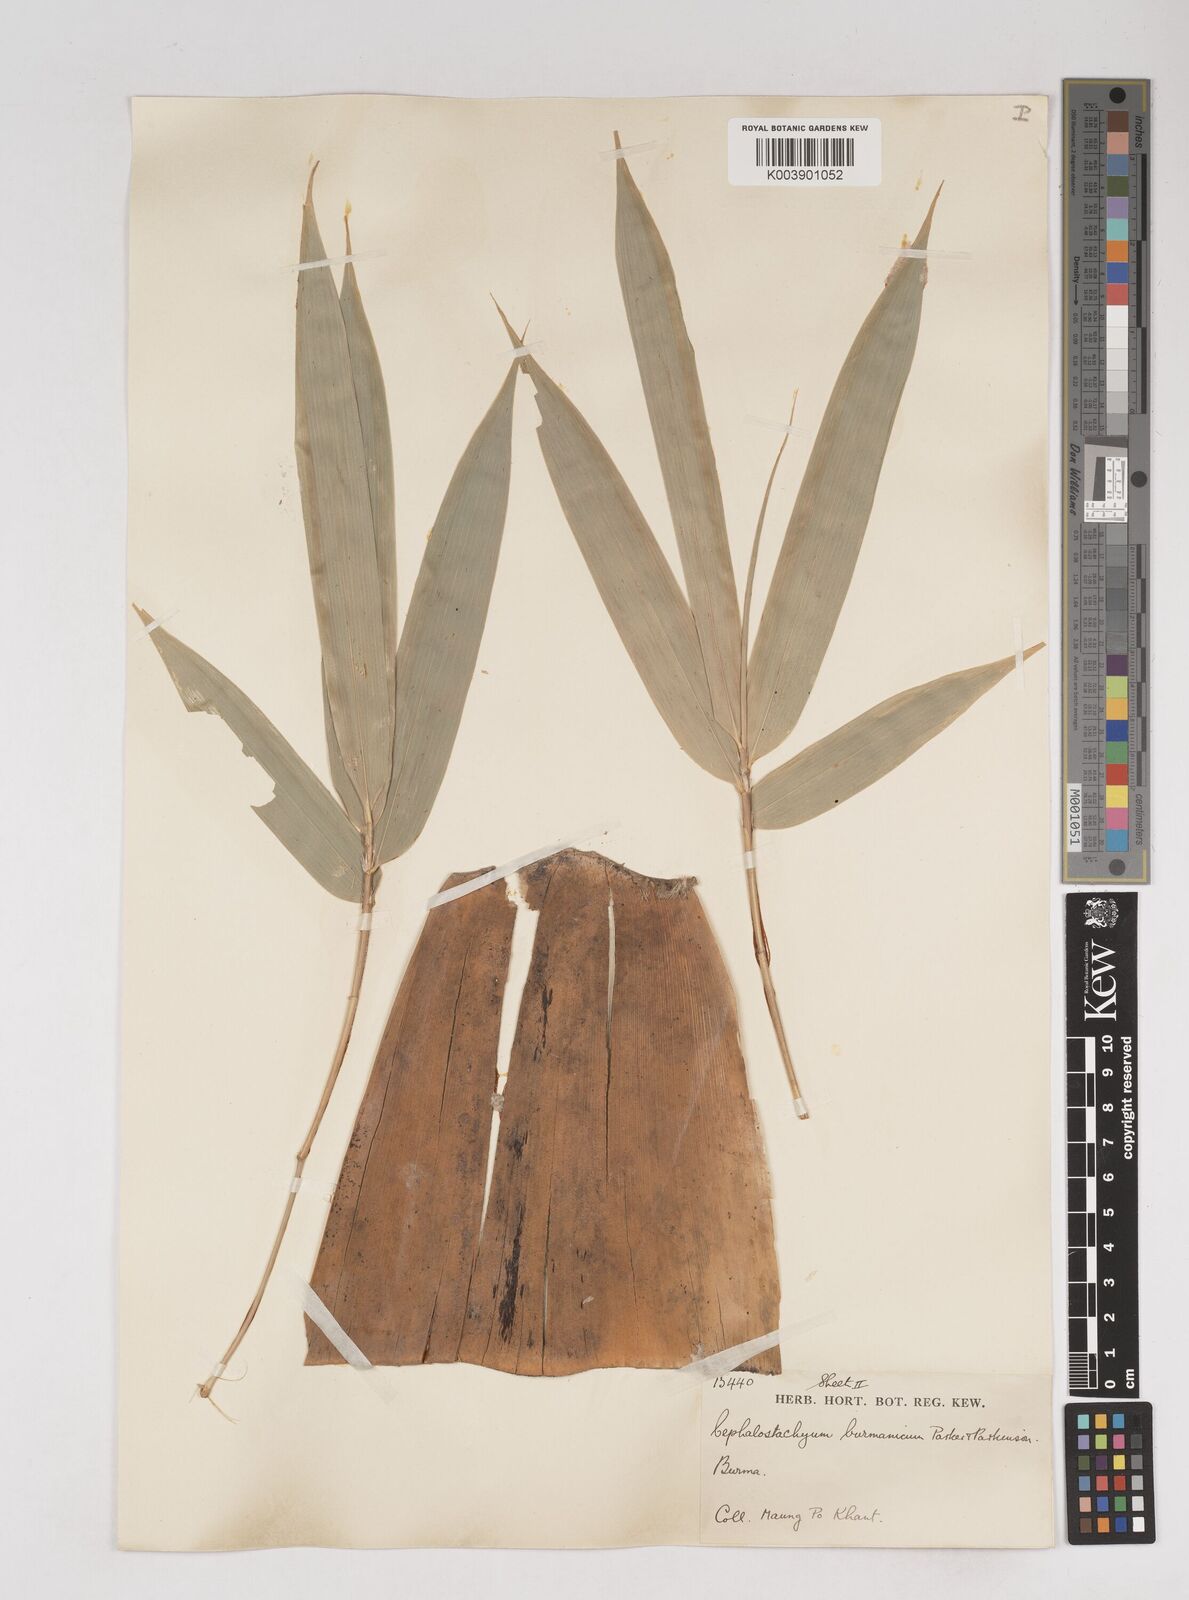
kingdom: Plantae
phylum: Tracheophyta
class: Liliopsida
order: Poales
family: Poaceae
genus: Cephalostachyum
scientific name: Cephalostachyum burmanicum
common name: Burma bambooshrub
